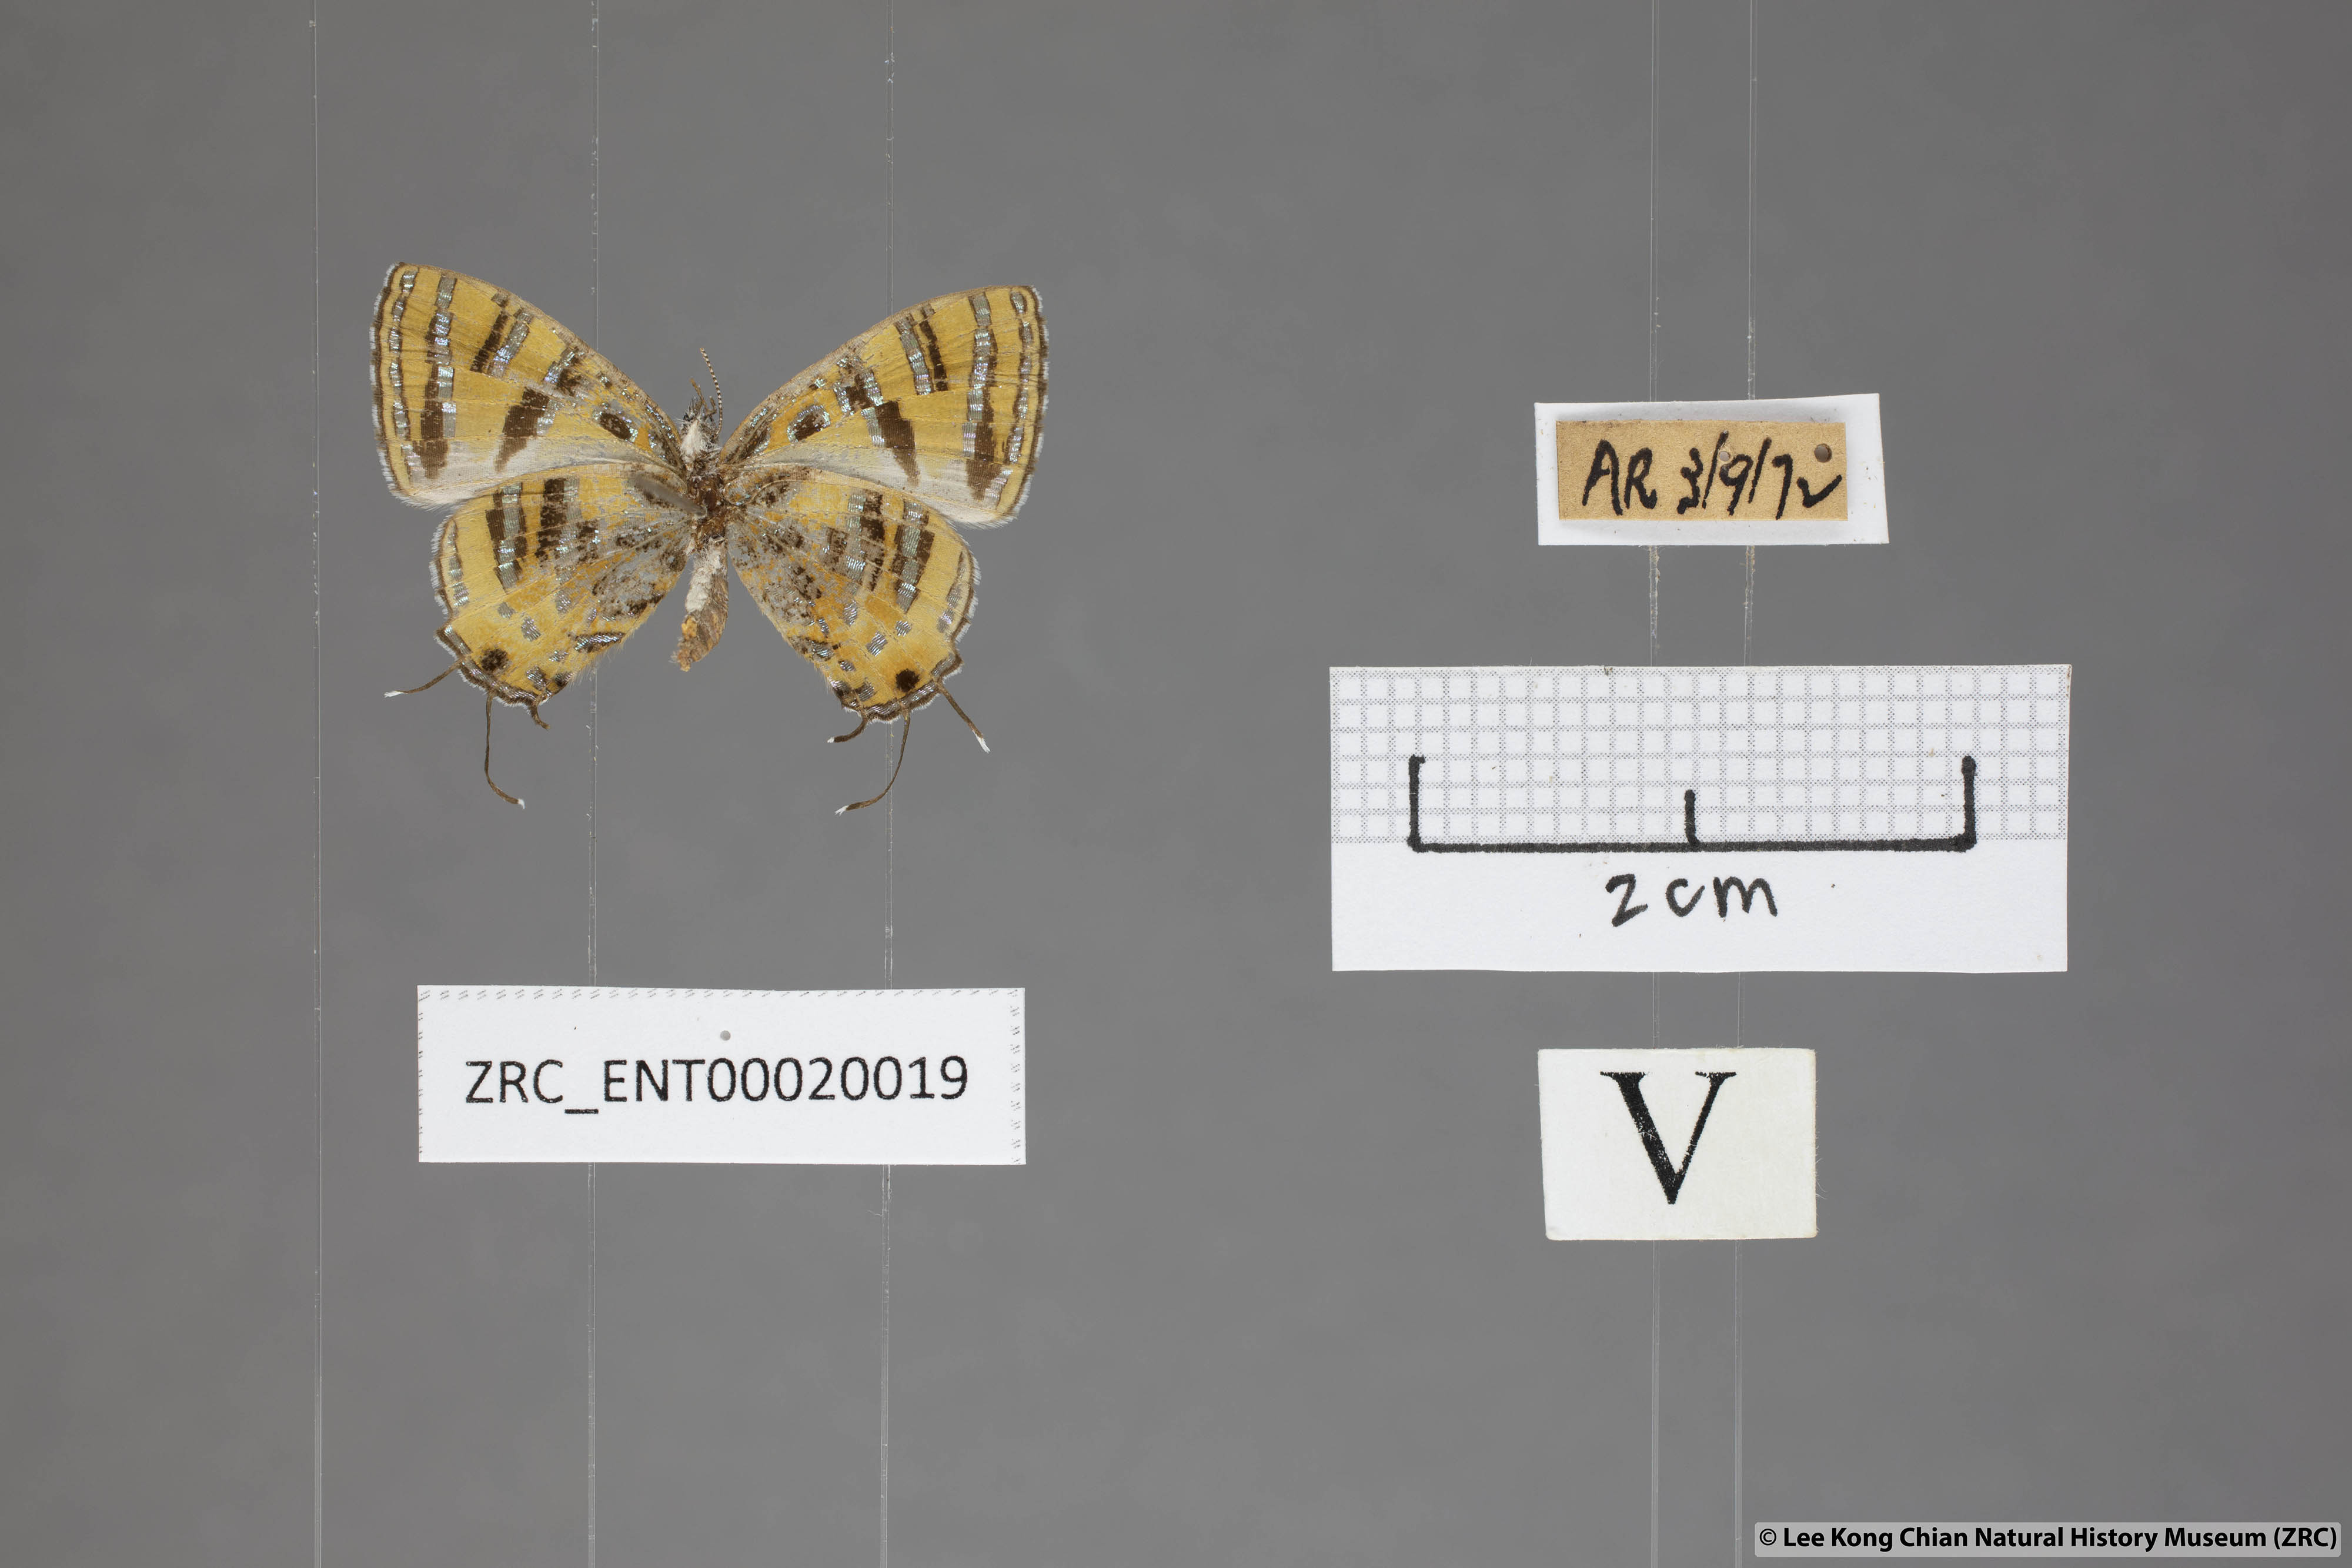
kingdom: Animalia
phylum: Arthropoda
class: Insecta
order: Lepidoptera
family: Lycaenidae
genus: Catapaecilma
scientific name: Catapaecilma subochrea
